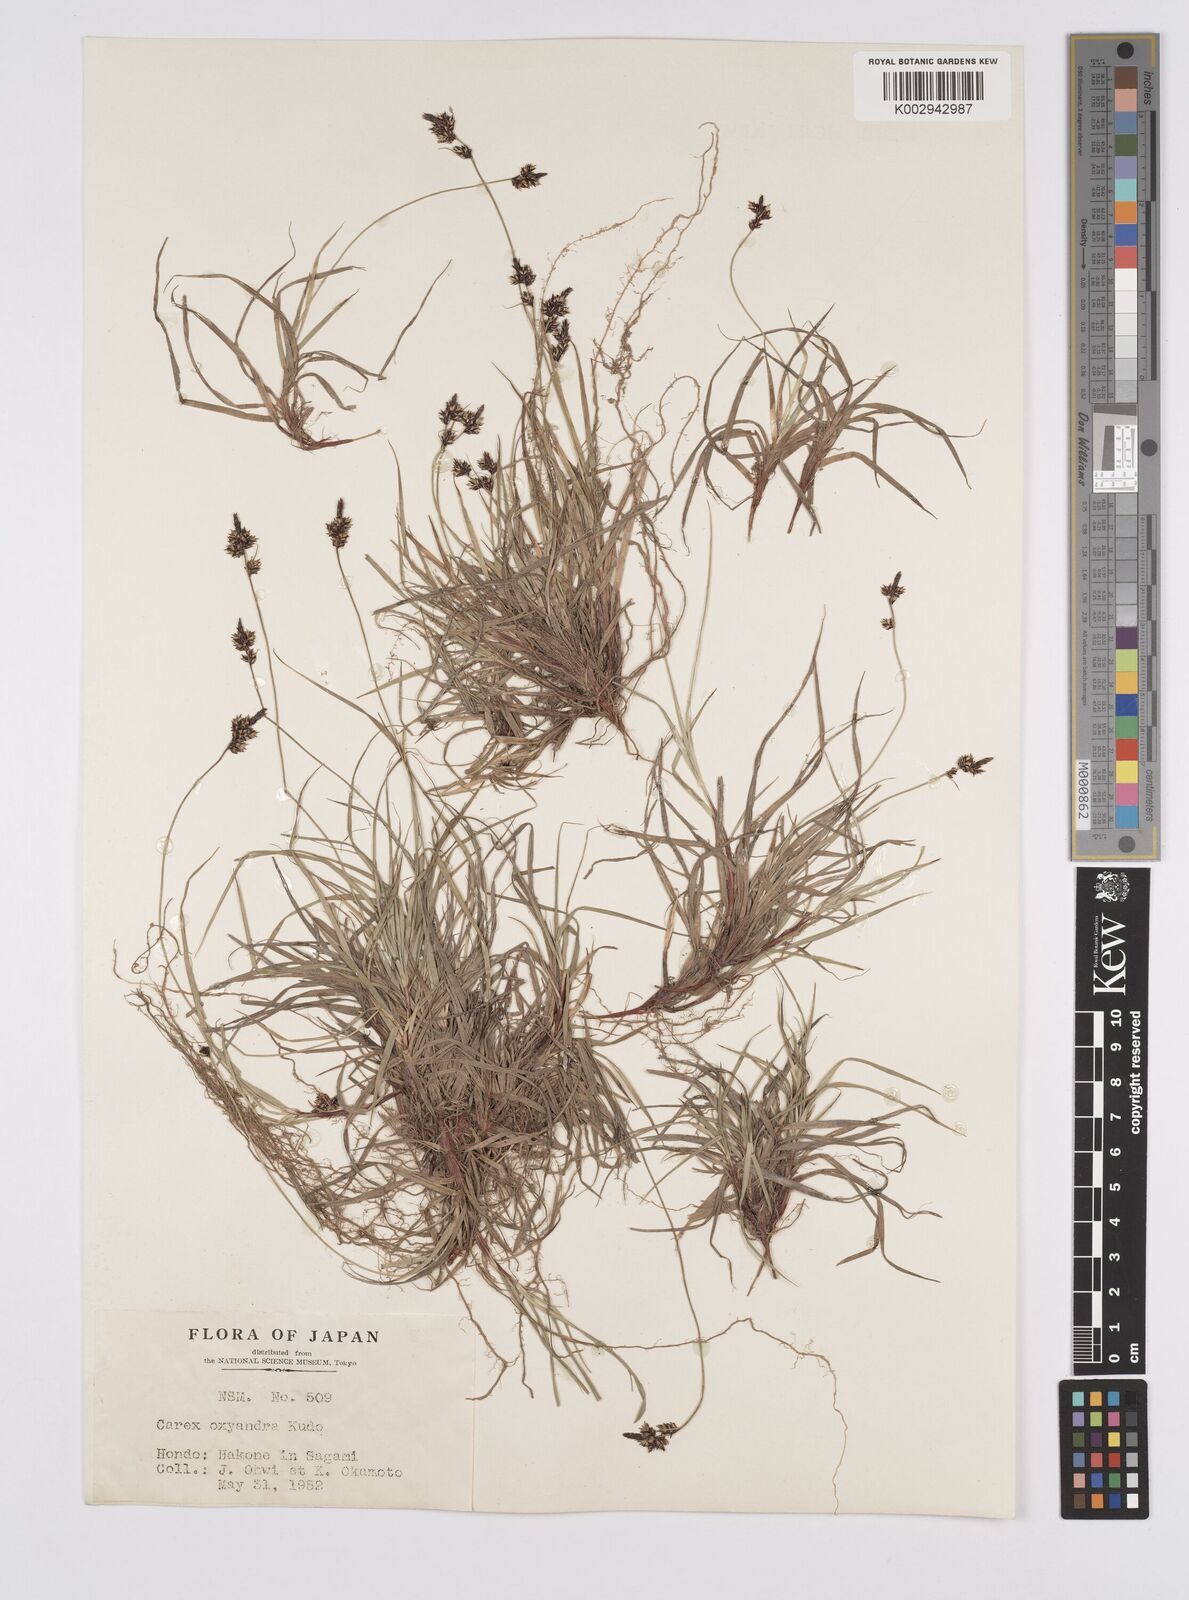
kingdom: Plantae
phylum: Tracheophyta
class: Liliopsida
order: Poales
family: Cyperaceae
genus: Carex
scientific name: Carex oxyandra
